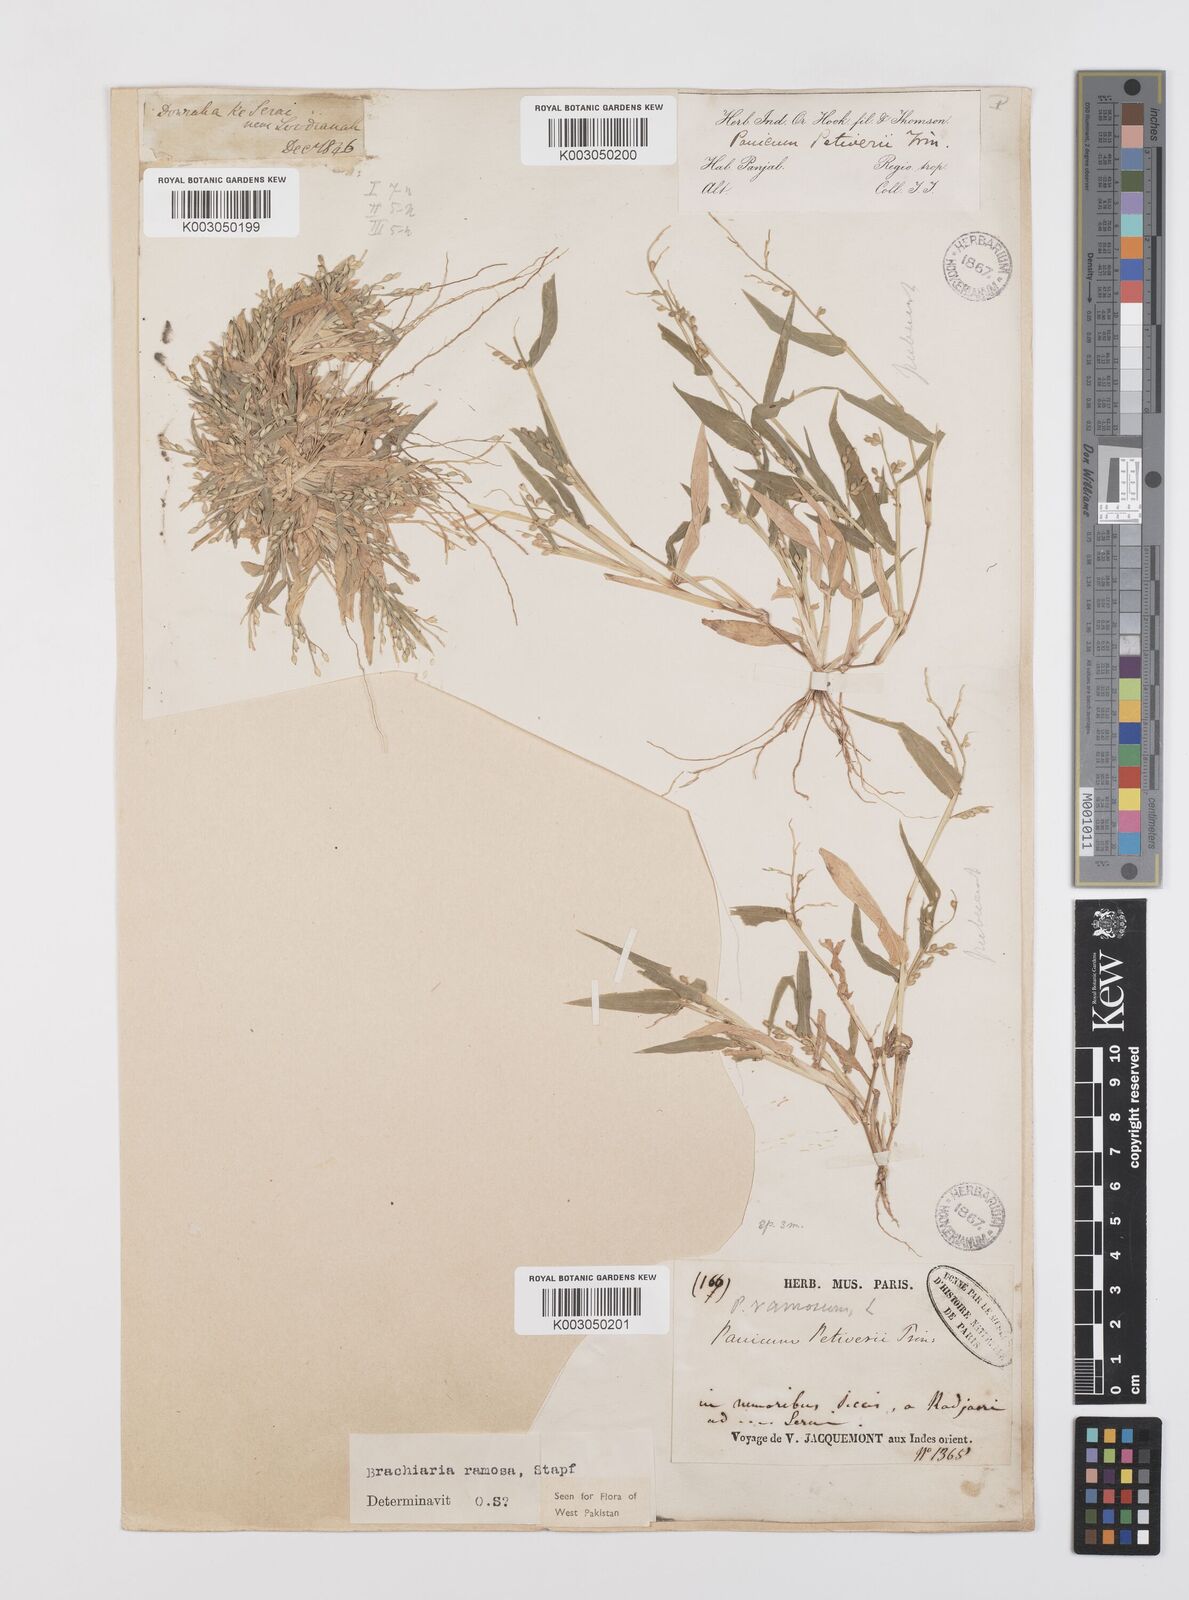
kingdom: Plantae
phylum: Tracheophyta
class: Liliopsida
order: Poales
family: Poaceae
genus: Urochloa
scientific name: Urochloa ramosa
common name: Browntop millet
